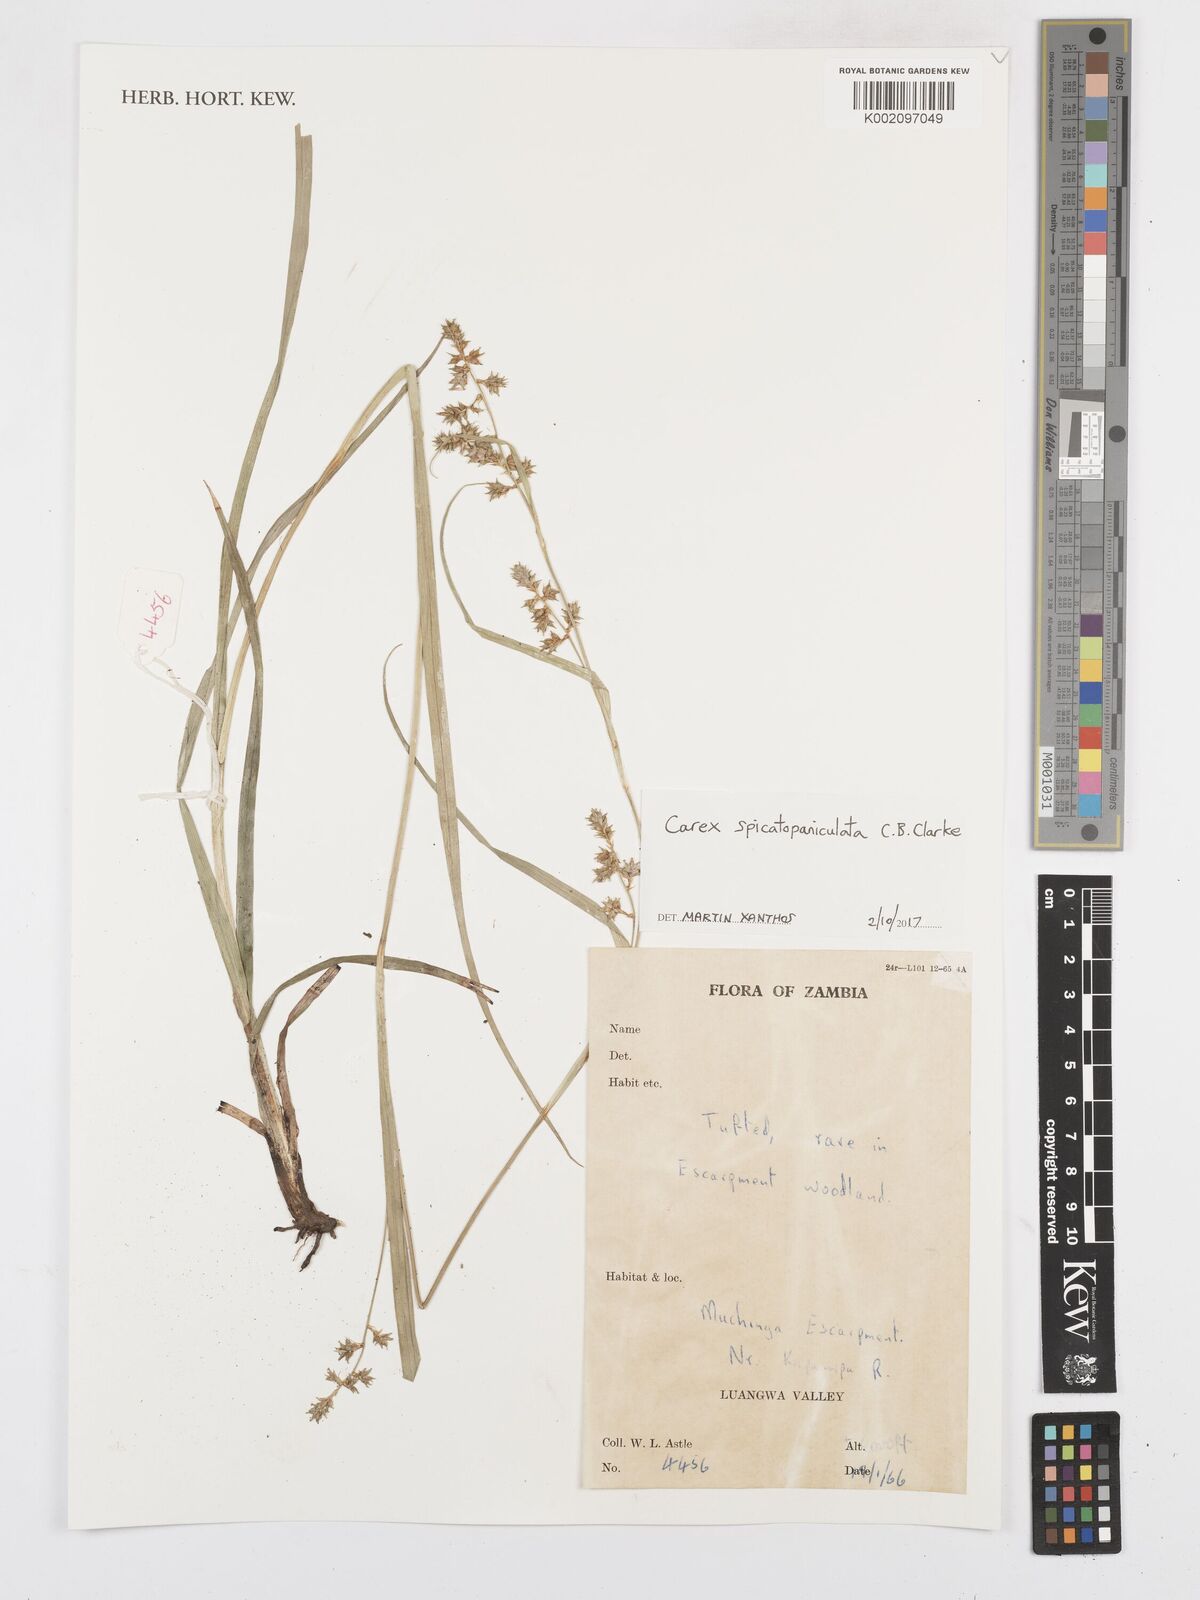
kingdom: Plantae
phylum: Tracheophyta
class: Liliopsida
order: Poales
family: Cyperaceae
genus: Carex
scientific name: Carex spicatopaniculata
